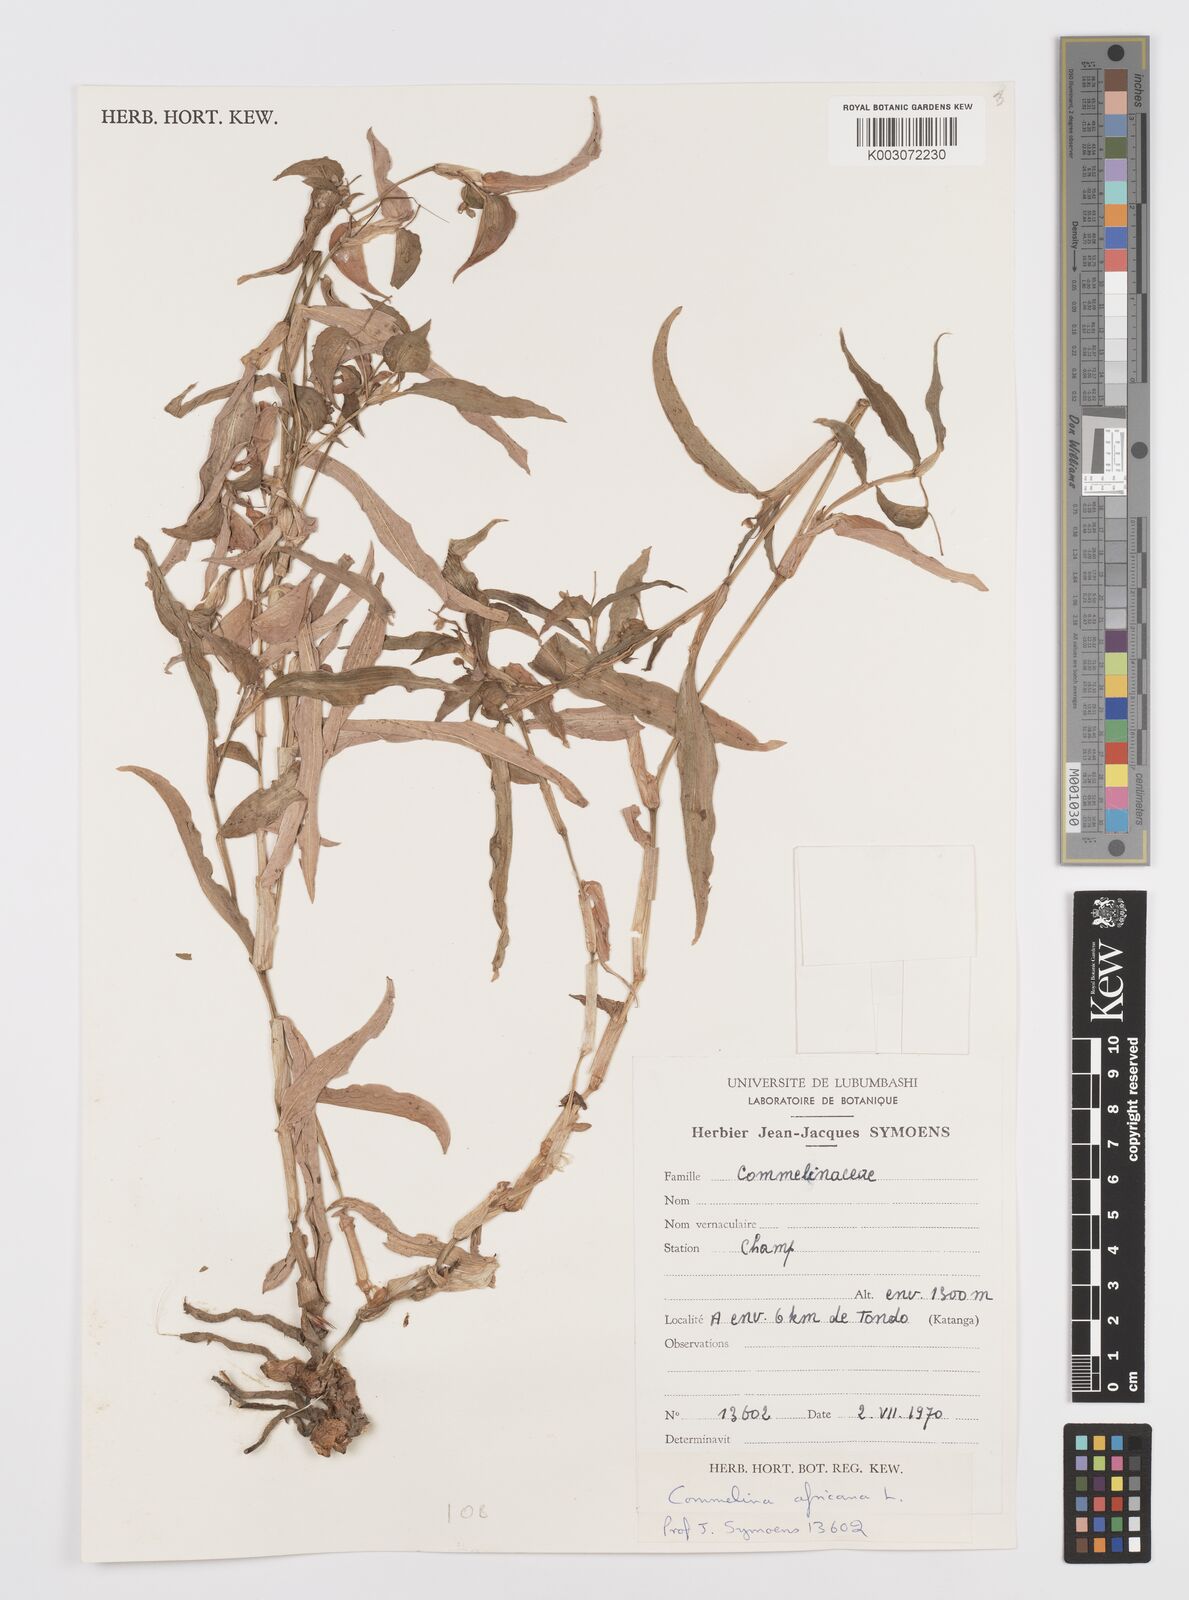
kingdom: Plantae
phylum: Tracheophyta
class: Liliopsida
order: Commelinales
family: Commelinaceae
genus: Commelina
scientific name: Commelina africana
